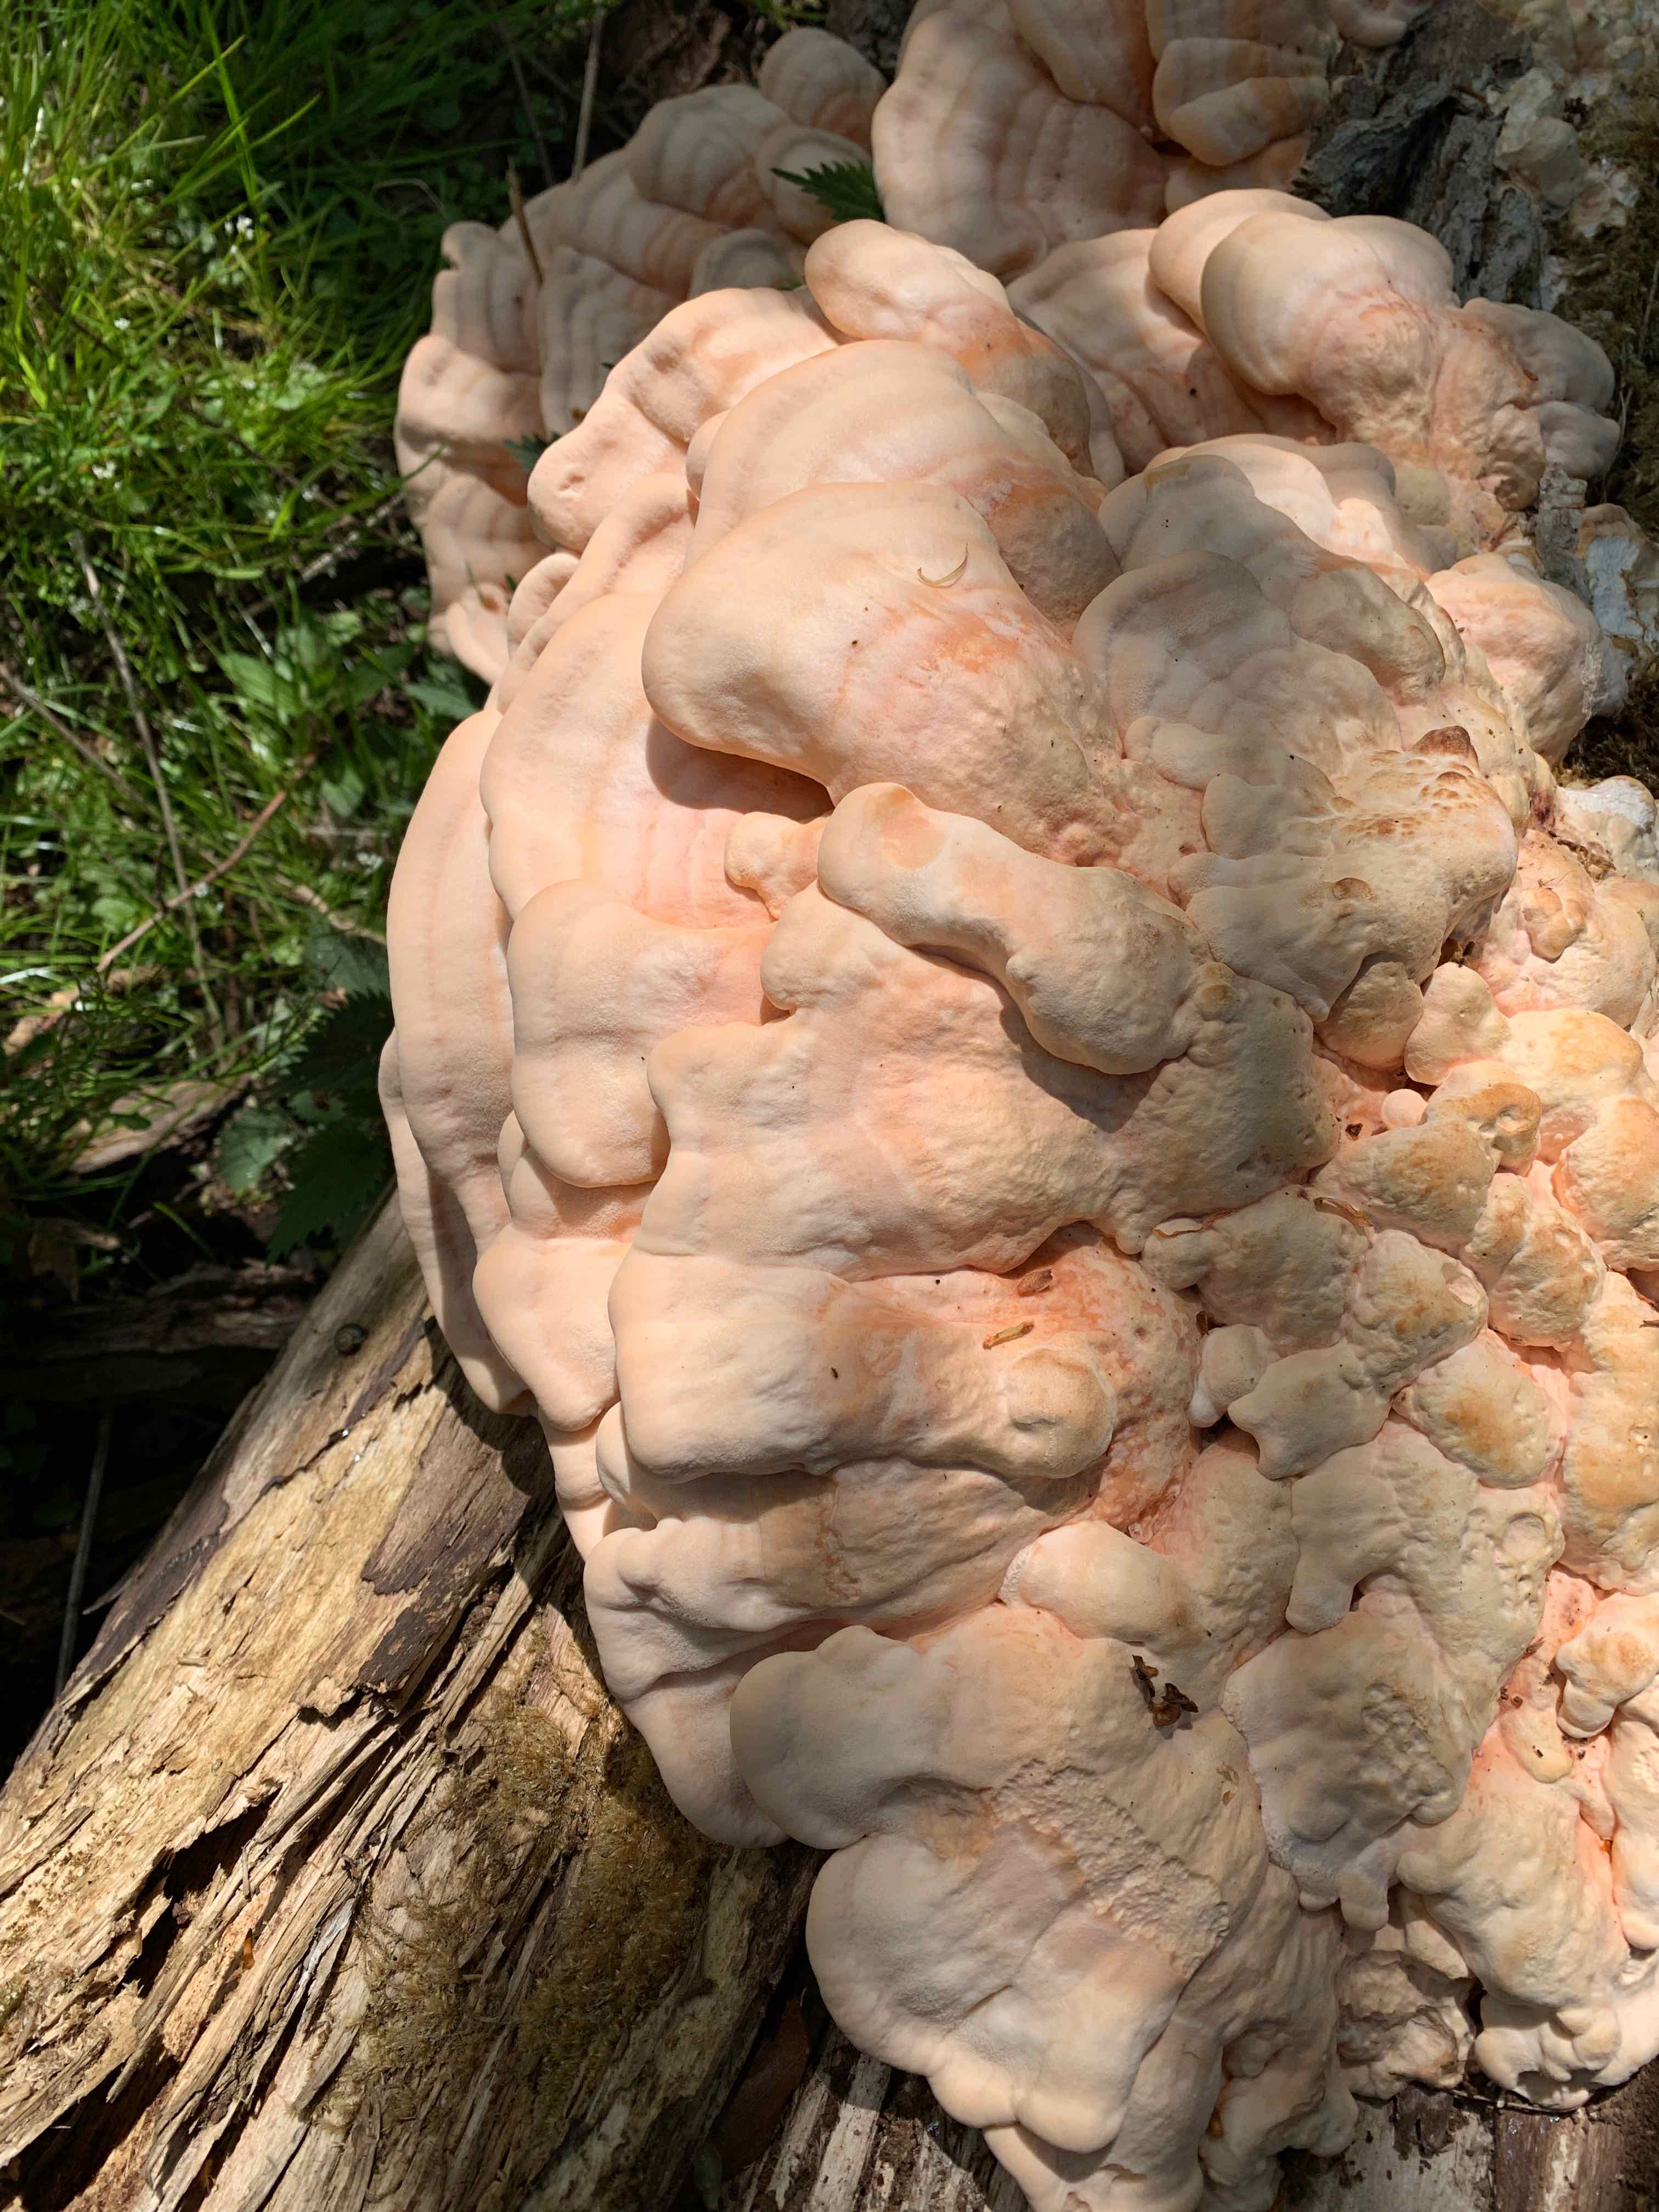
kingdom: Fungi
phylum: Basidiomycota
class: Agaricomycetes
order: Polyporales
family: Laetiporaceae
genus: Laetiporus
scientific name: Laetiporus sulphureus
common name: svovlporesvamp
